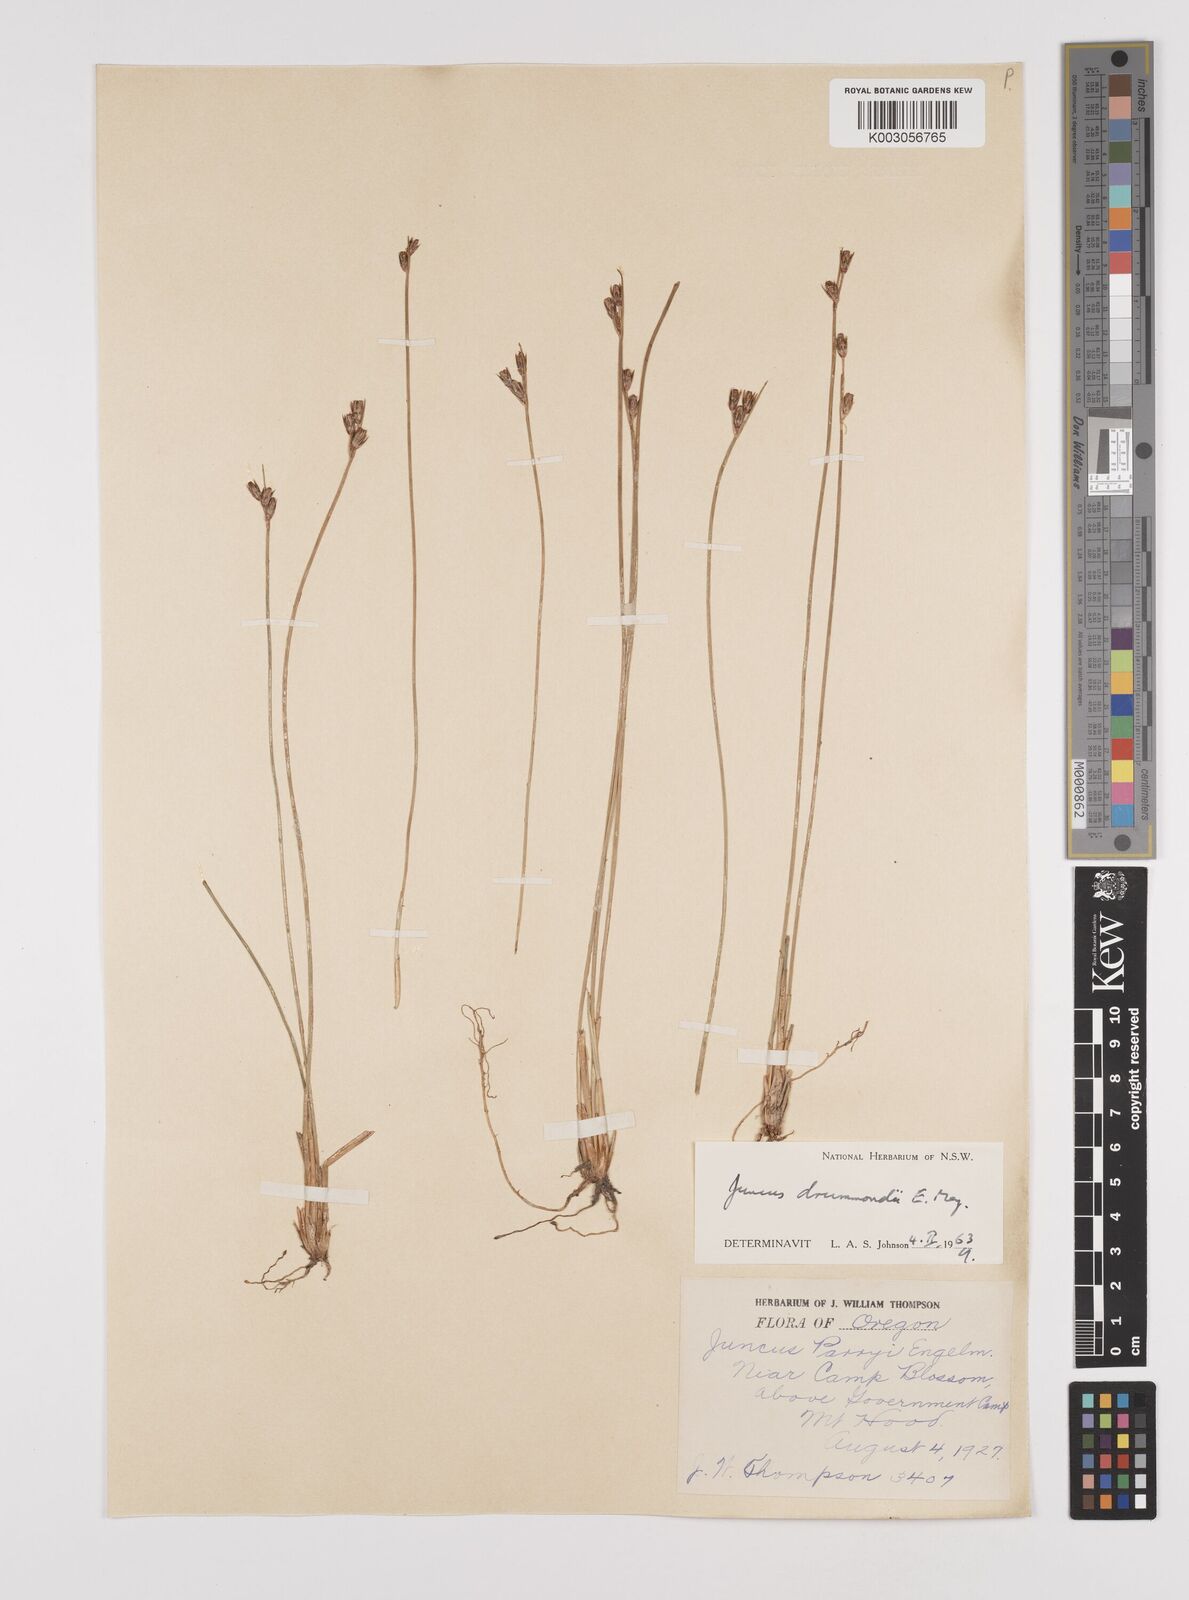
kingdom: Plantae
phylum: Tracheophyta
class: Liliopsida
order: Poales
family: Juncaceae
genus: Juncus
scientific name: Juncus drummondii
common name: Drummond's rush
